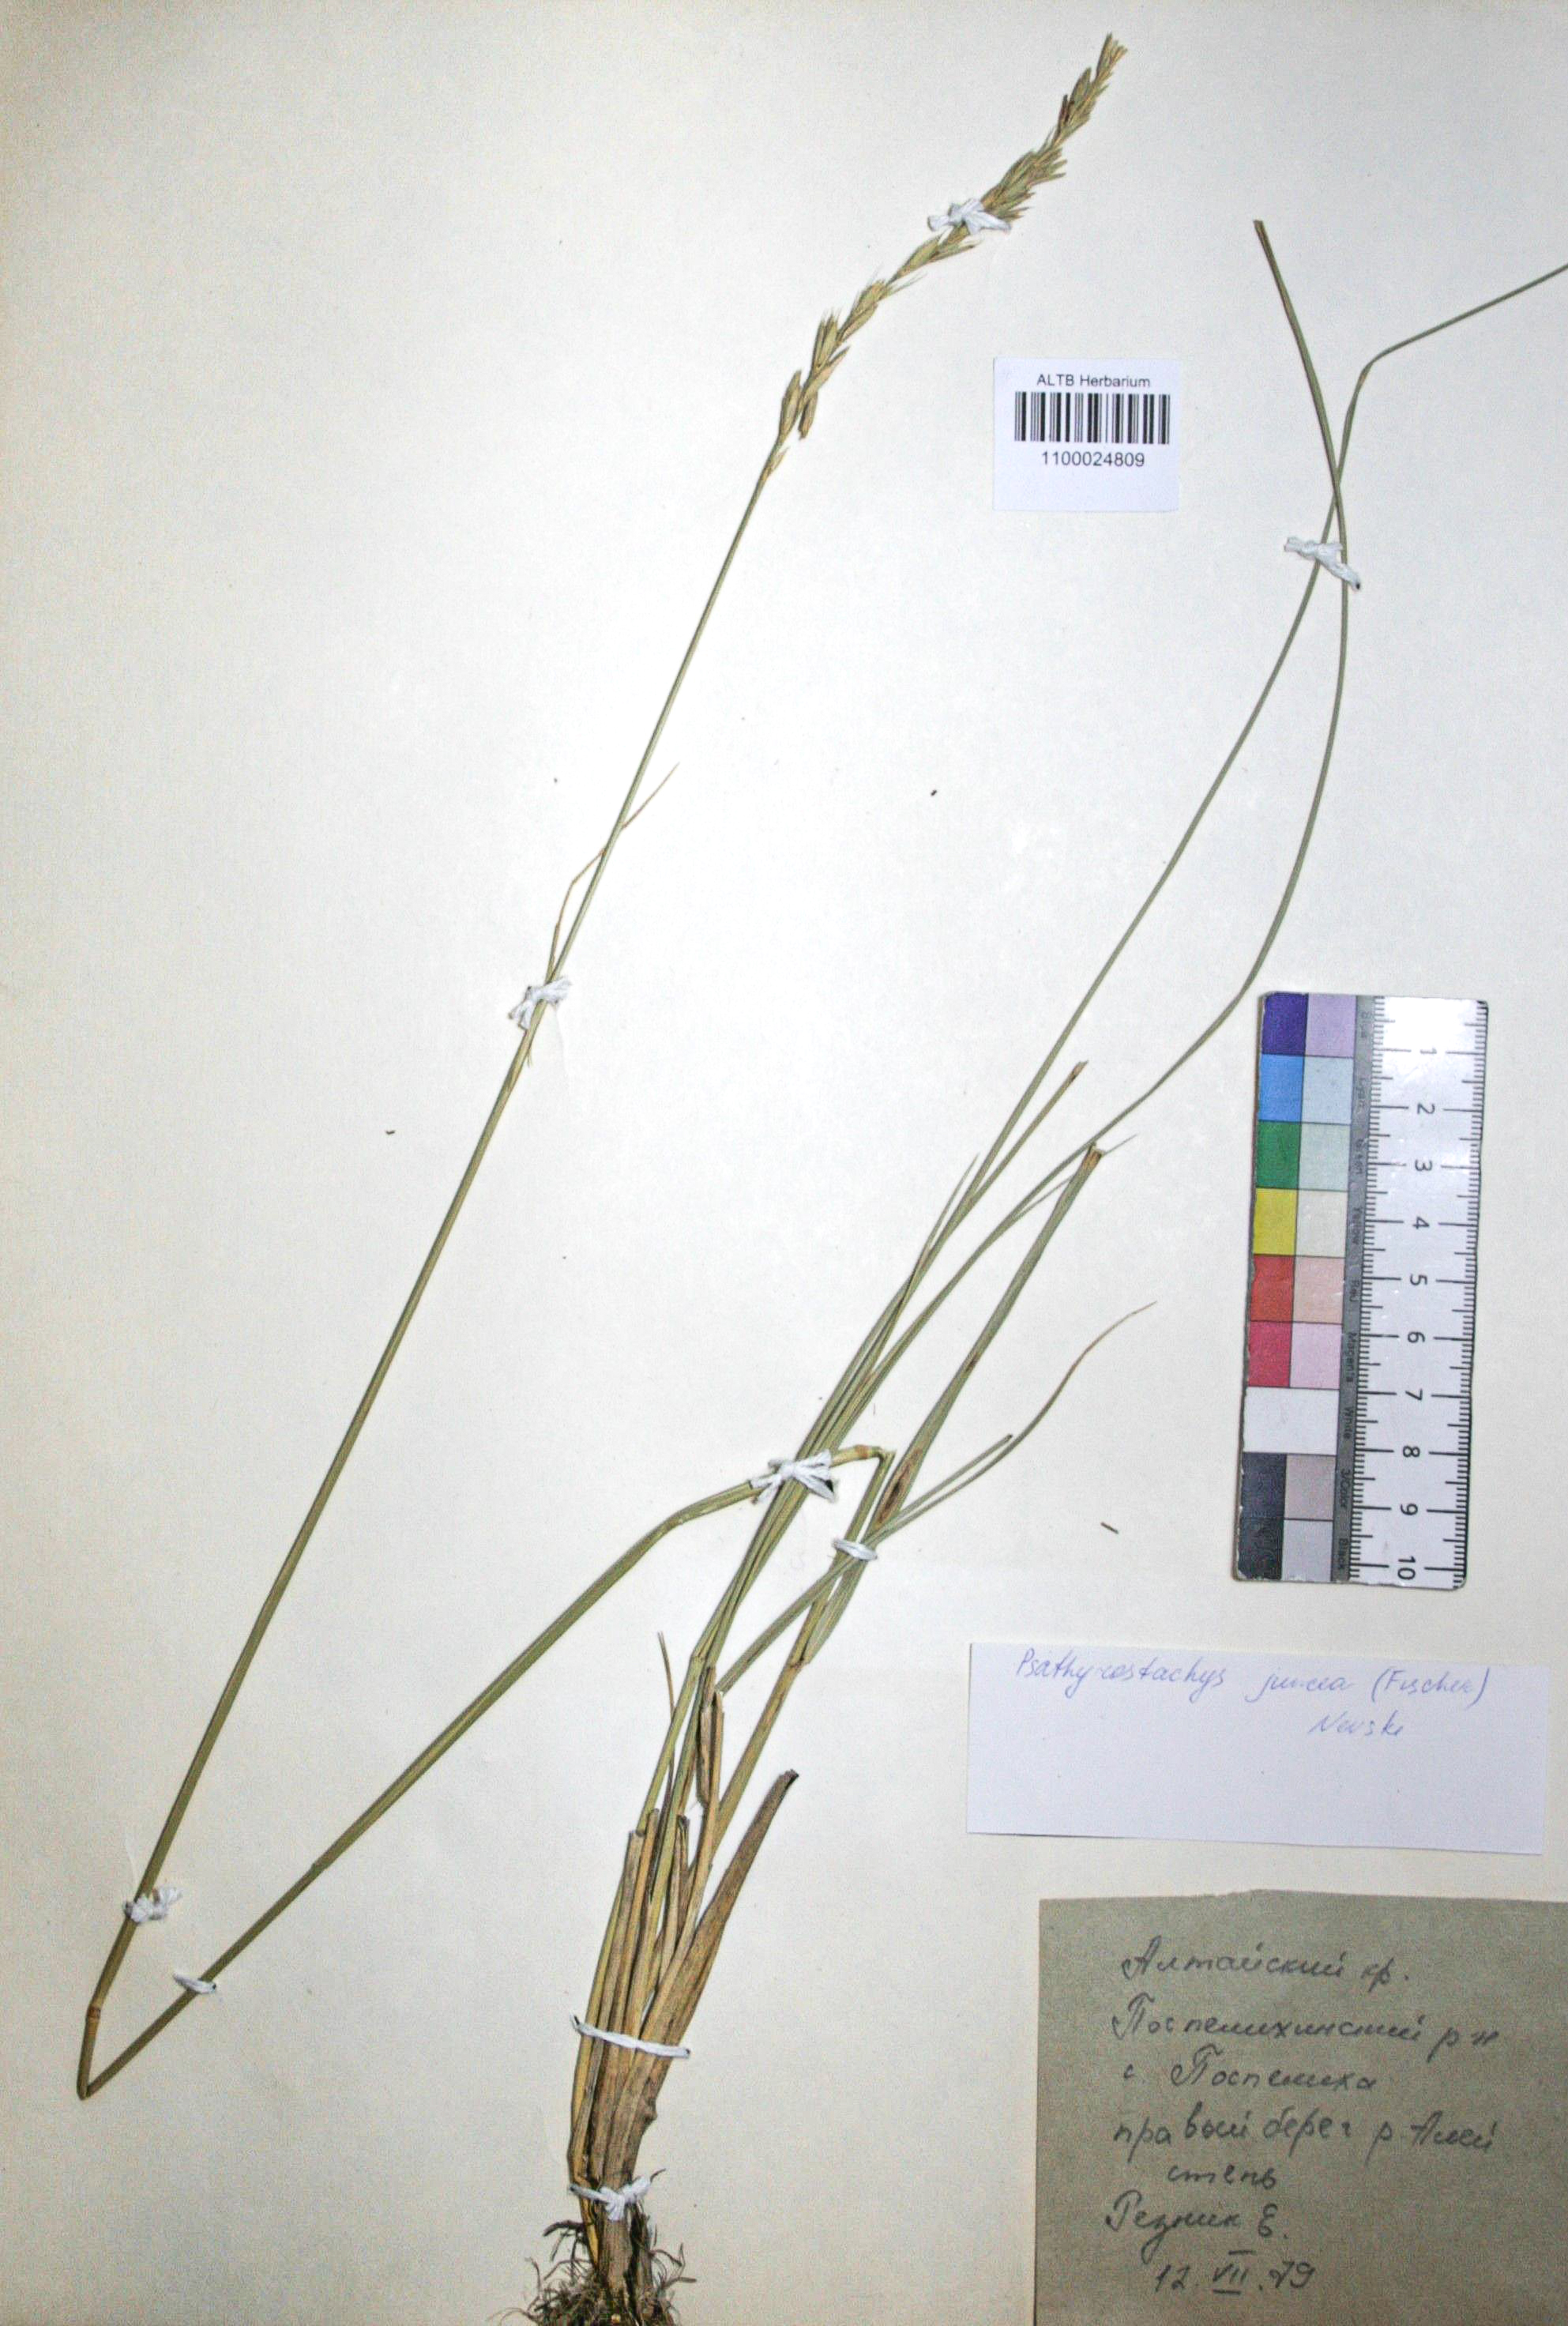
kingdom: Plantae
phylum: Tracheophyta
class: Liliopsida
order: Poales
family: Poaceae
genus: Psathyrostachys
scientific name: Psathyrostachys juncea
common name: Russian wildrye
